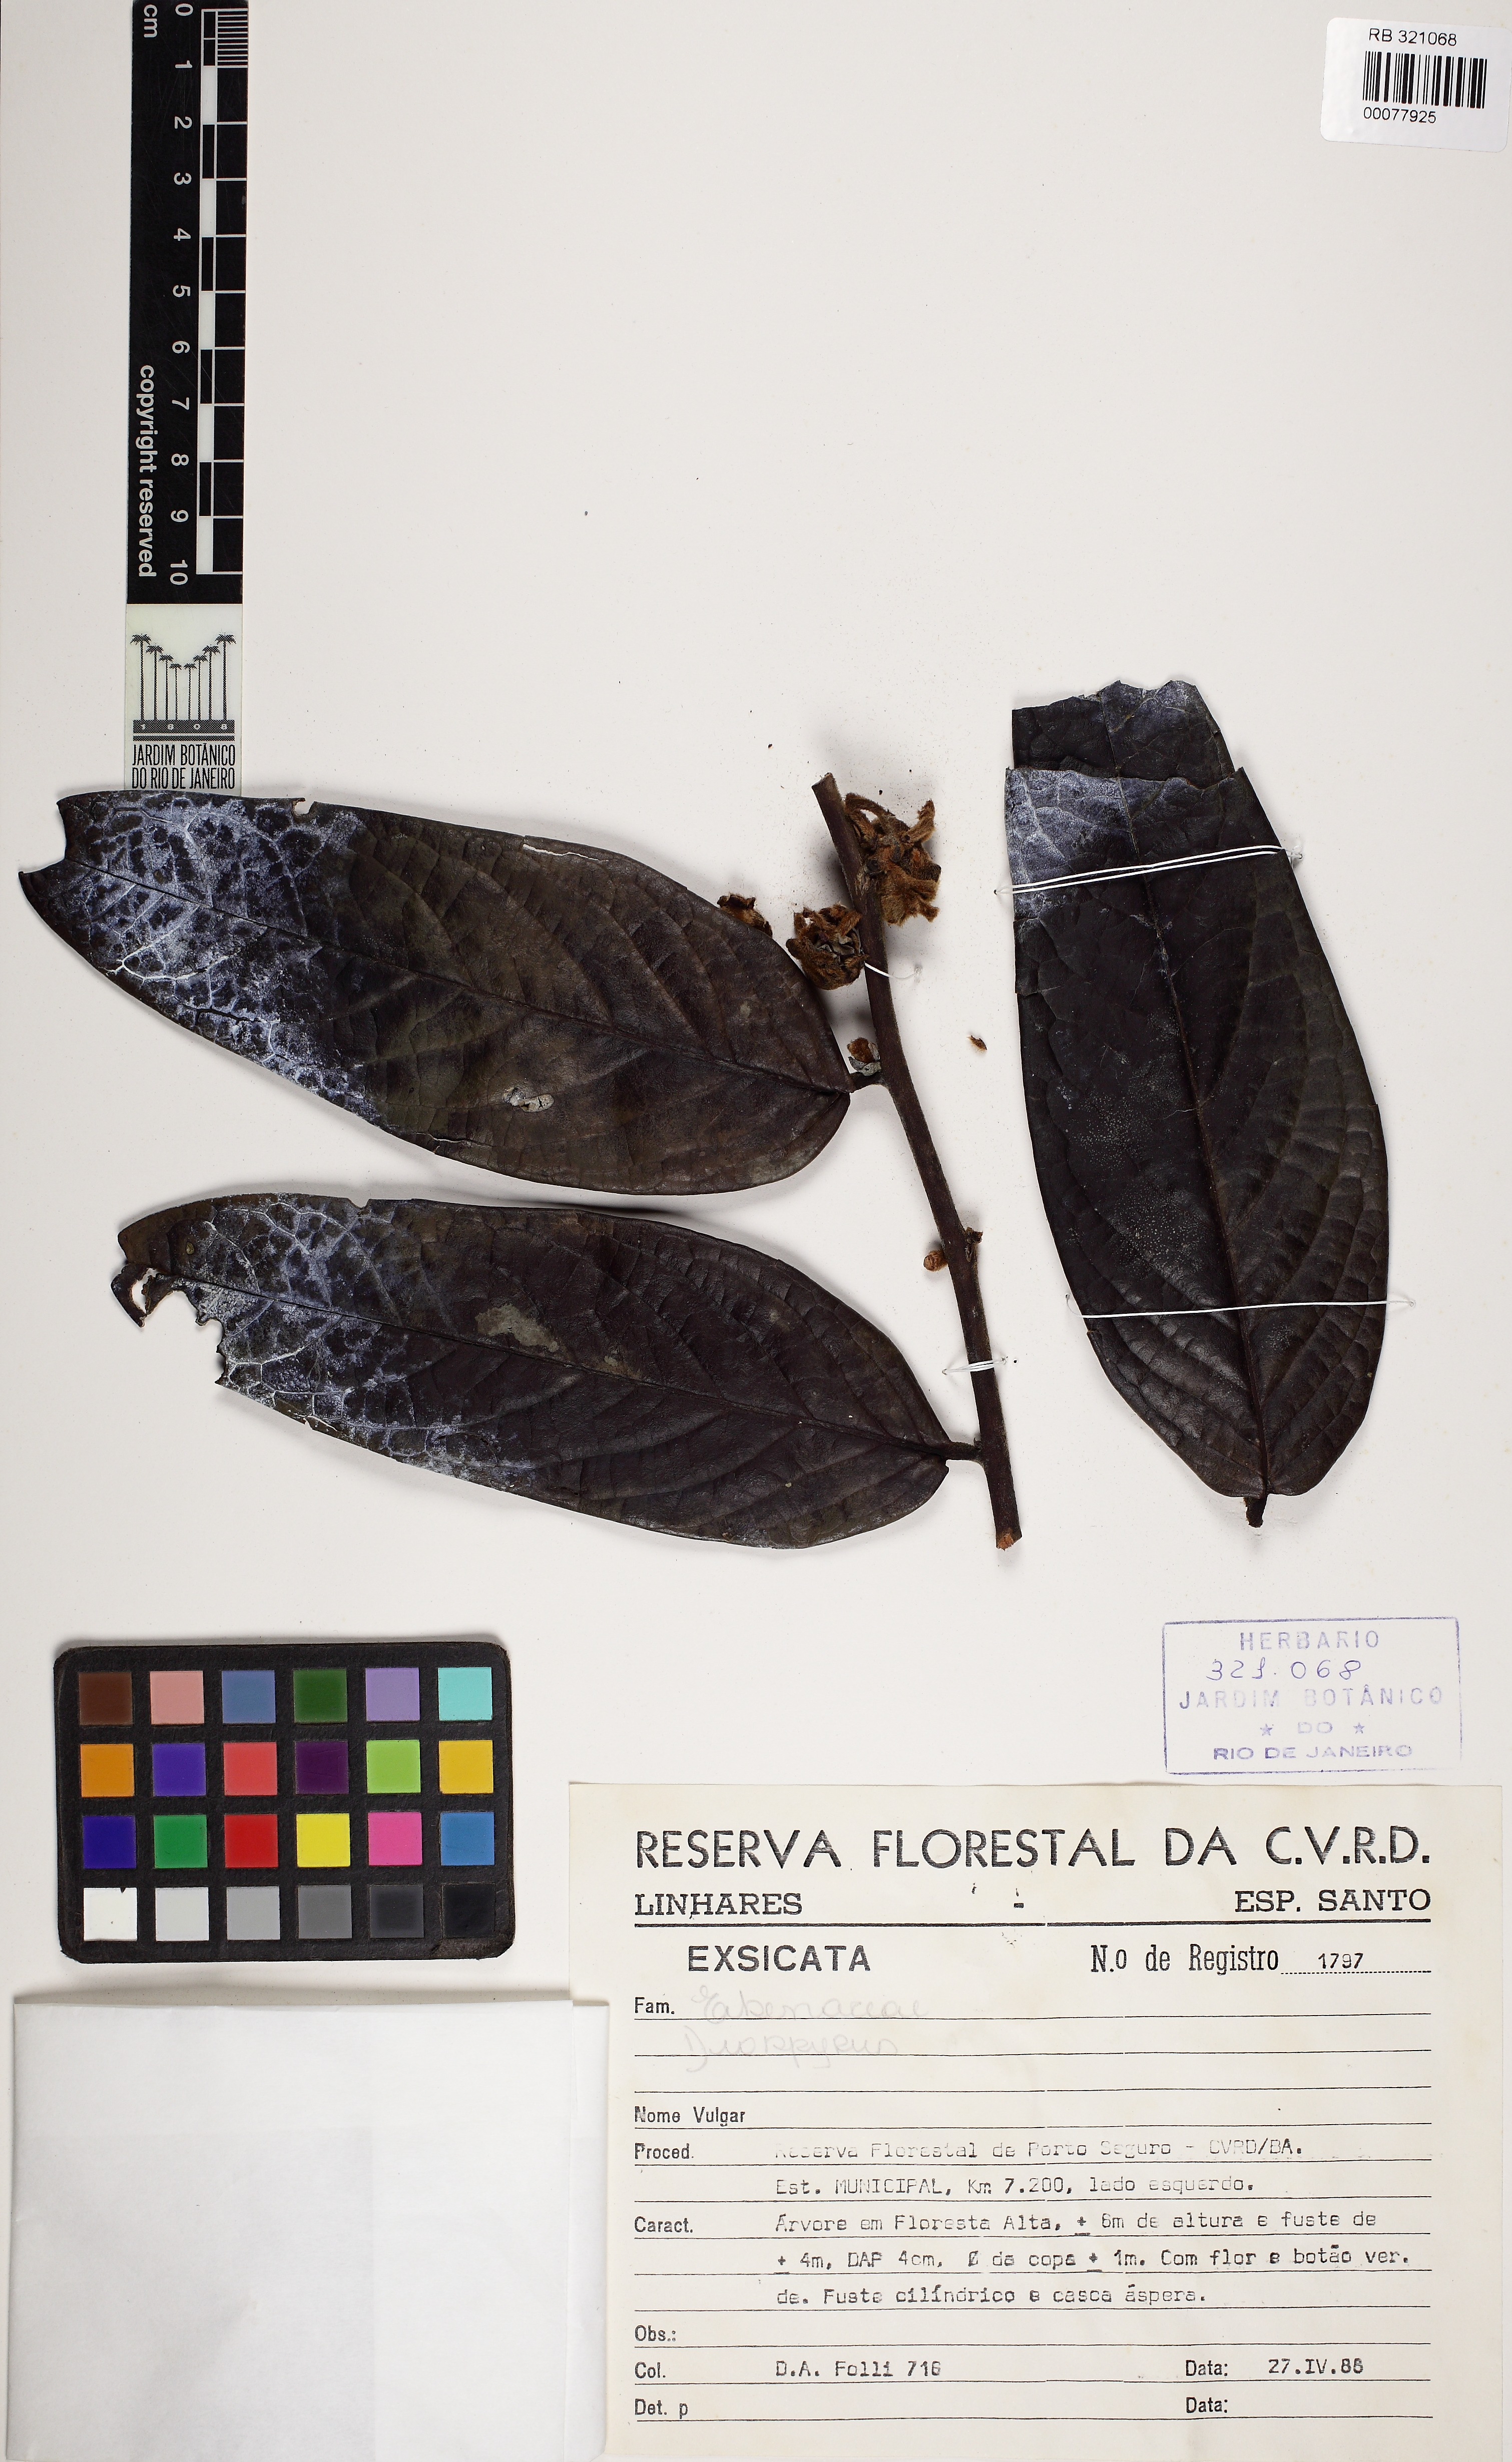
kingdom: Plantae
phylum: Tracheophyta
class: Magnoliopsida
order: Ericales
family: Ebenaceae
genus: Diospyros
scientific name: Diospyros gaultheriifolia
